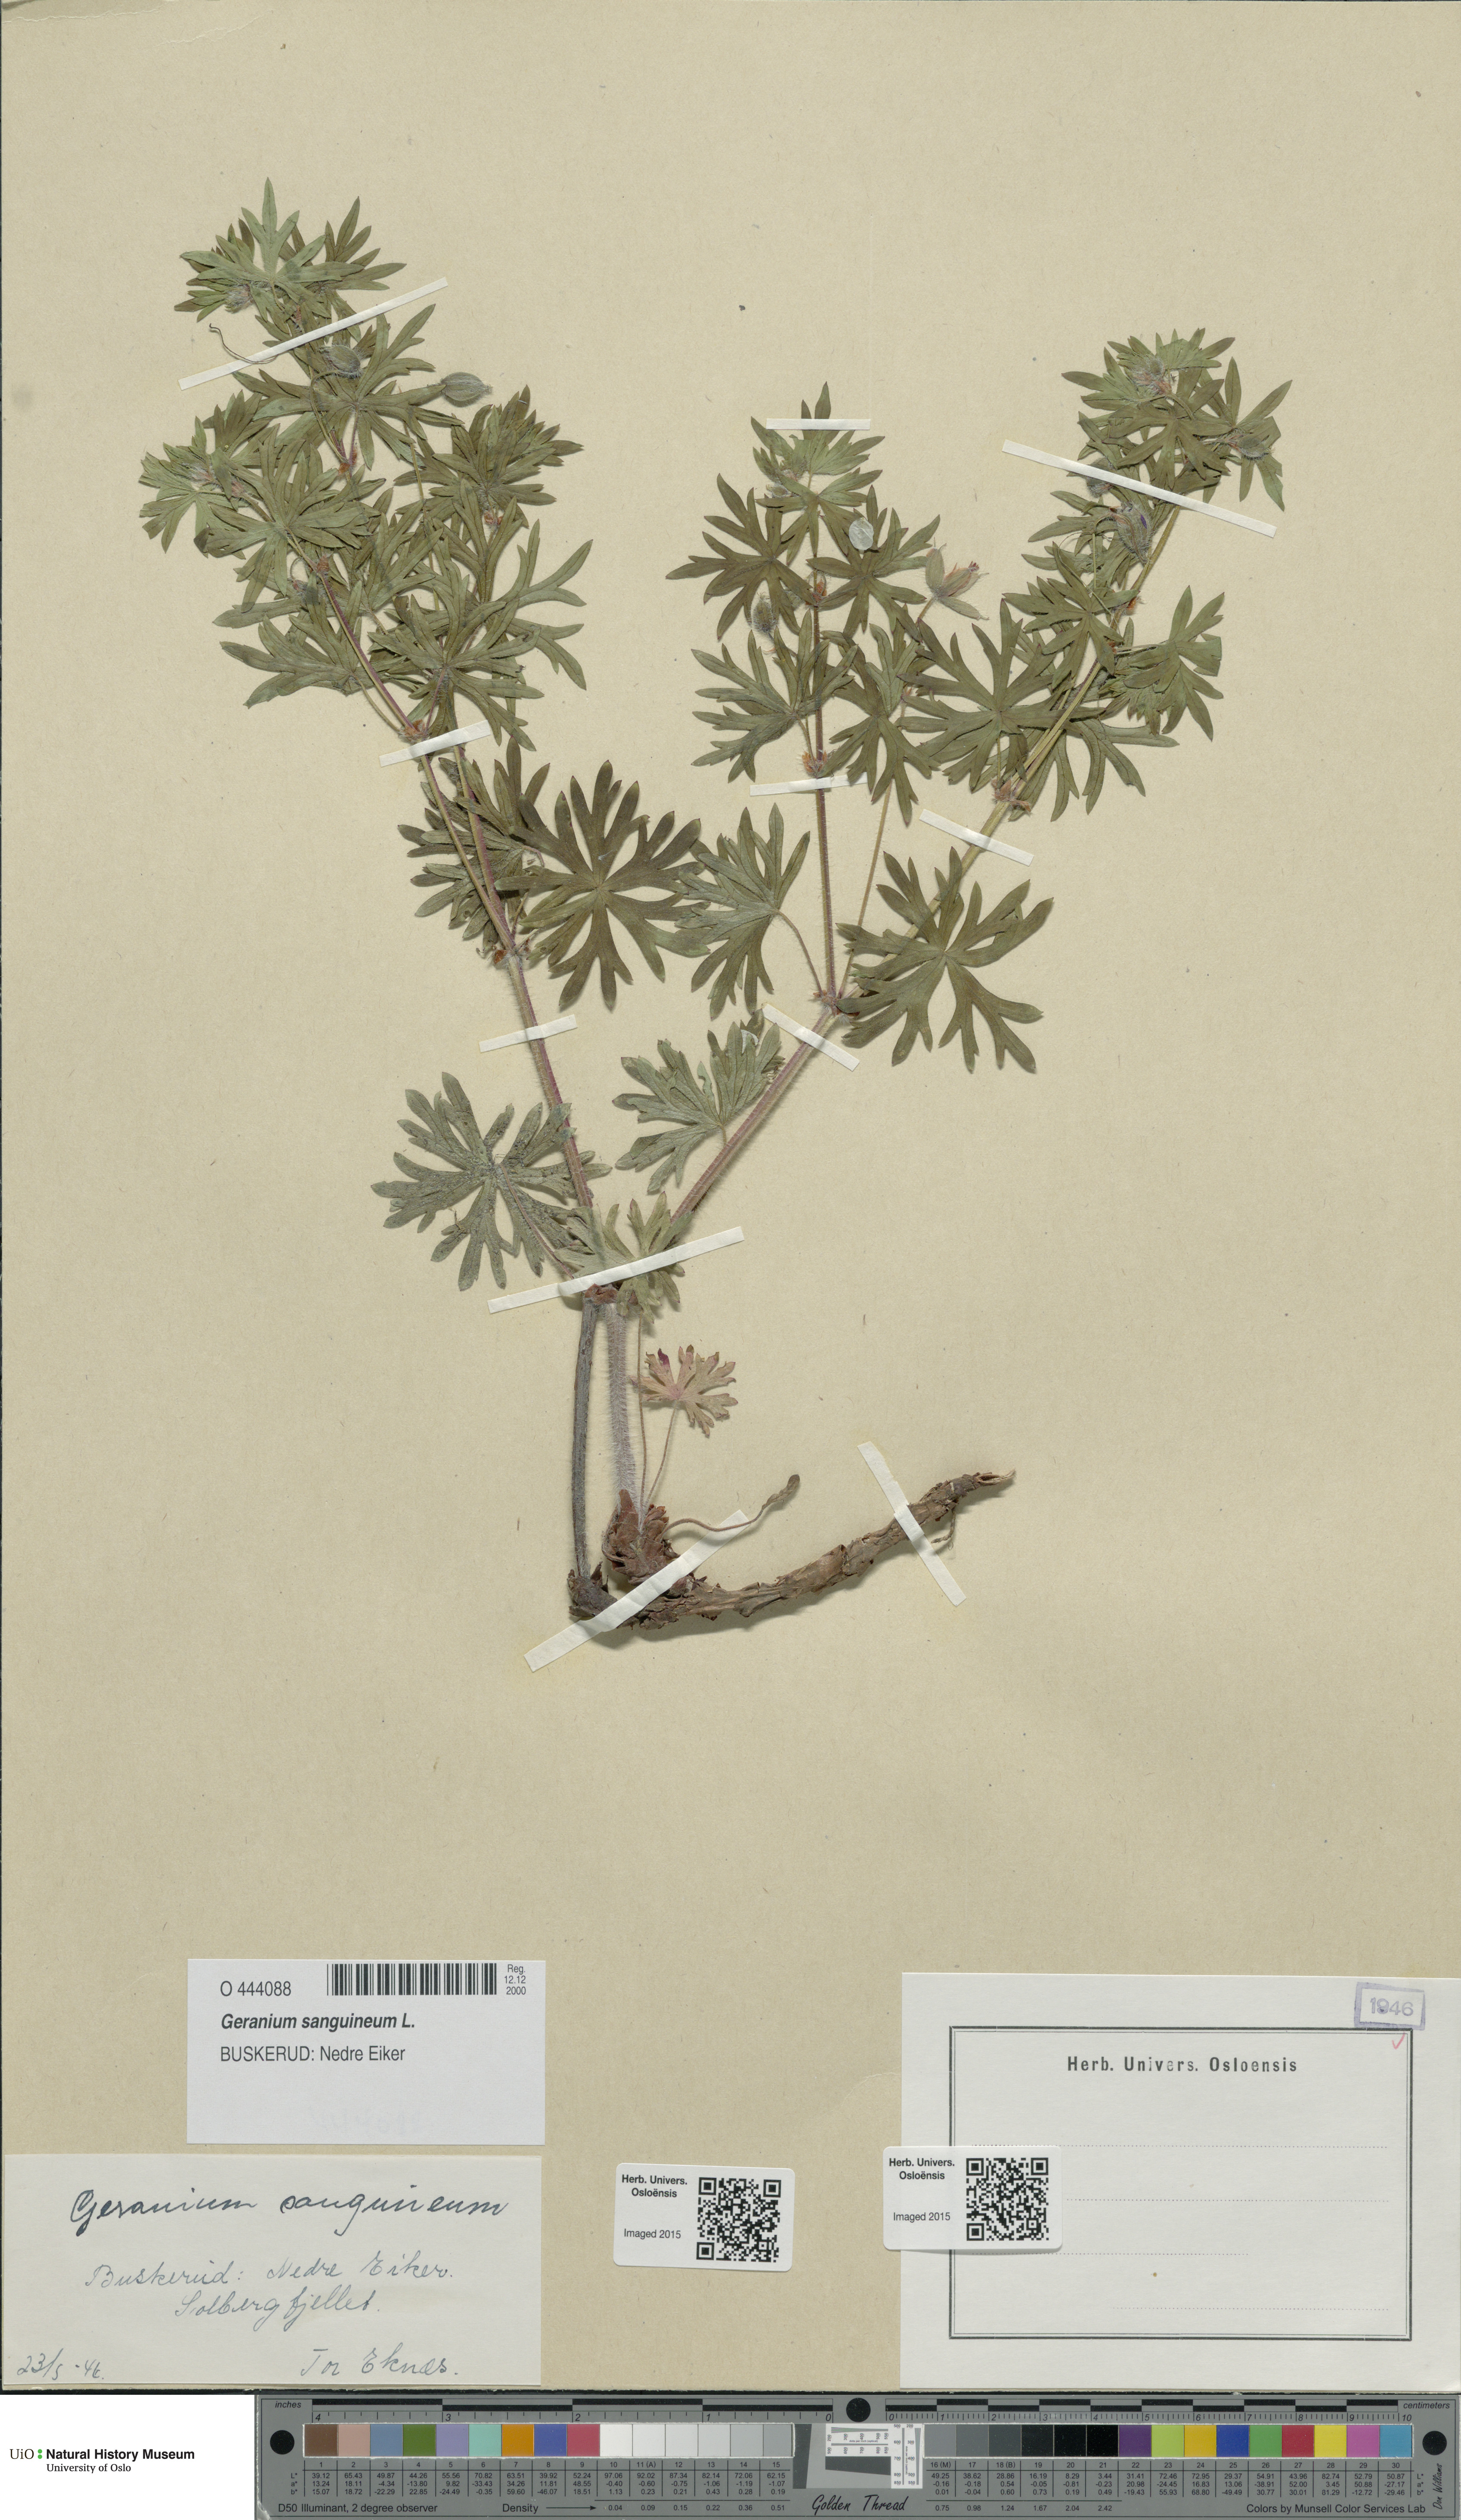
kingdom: Plantae
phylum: Tracheophyta
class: Magnoliopsida
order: Geraniales
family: Geraniaceae
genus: Geranium
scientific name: Geranium sanguineum
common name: Bloody crane's-bill
